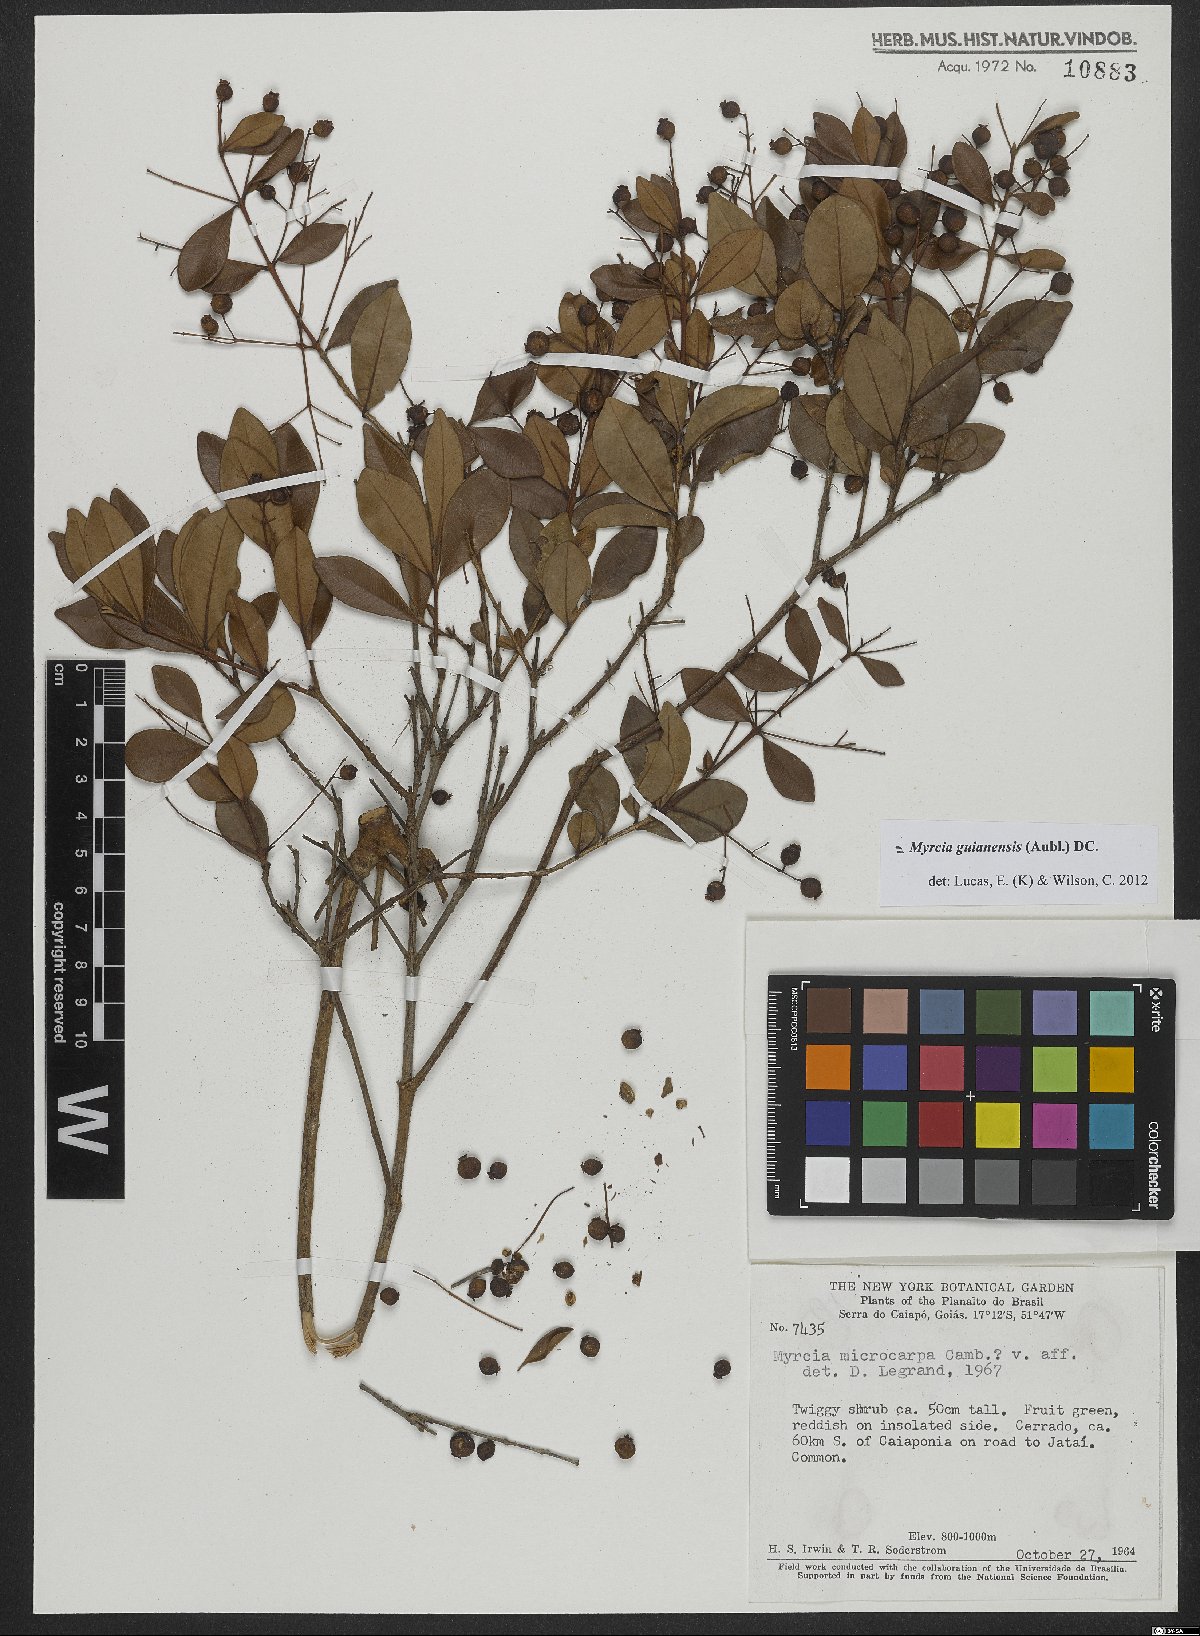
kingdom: Plantae
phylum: Tracheophyta
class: Magnoliopsida
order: Myrtales
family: Myrtaceae
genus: Myrcia
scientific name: Myrcia guianensis
